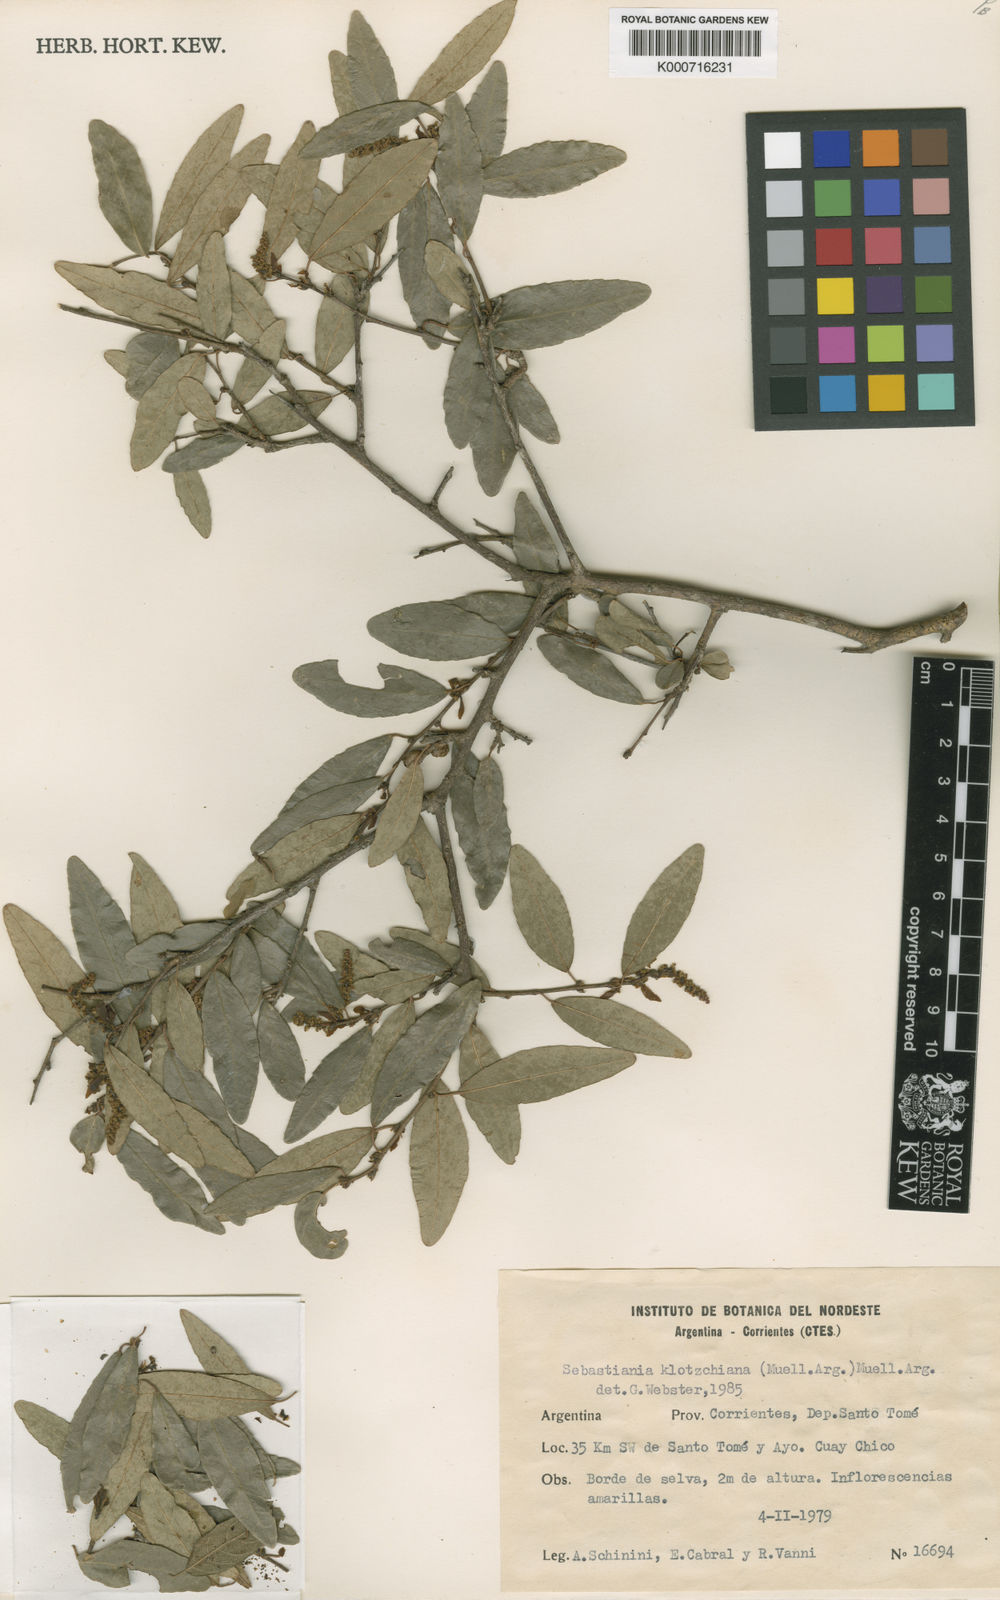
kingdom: Plantae
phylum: Tracheophyta
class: Magnoliopsida
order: Malpighiales
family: Euphorbiaceae
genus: Sebastiania
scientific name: Sebastiania
